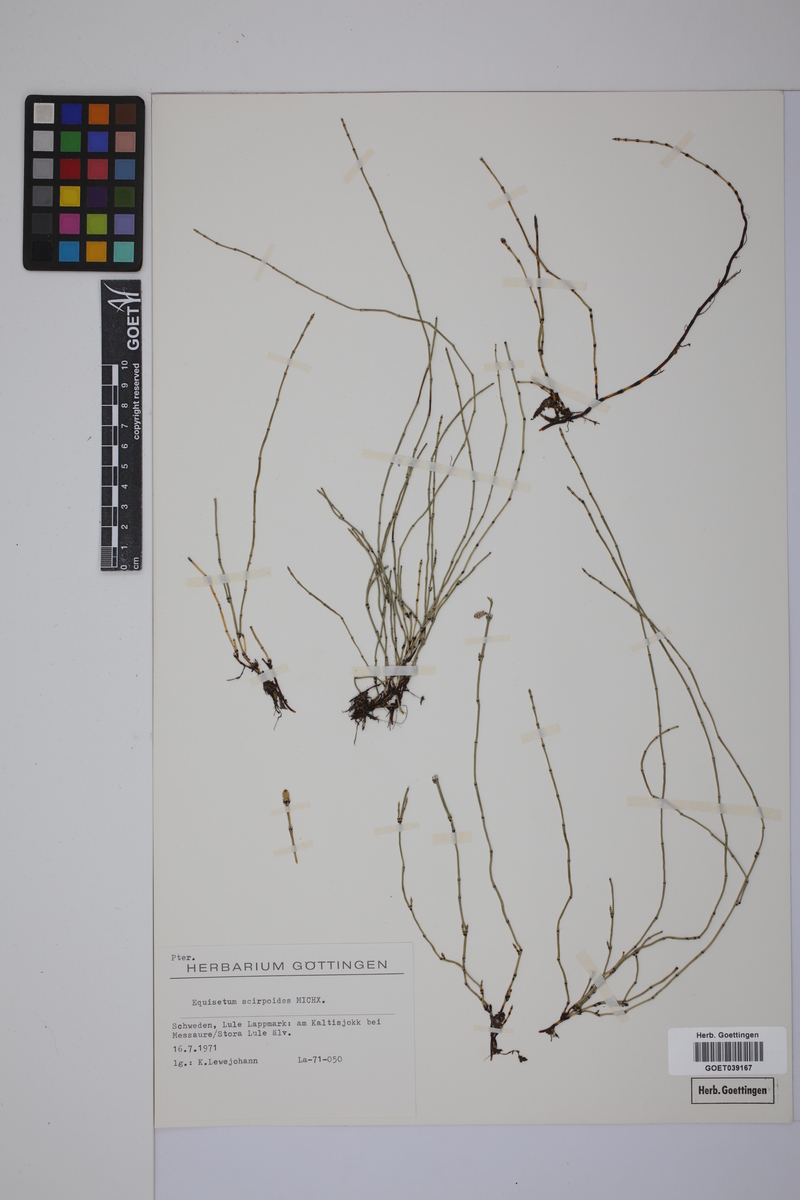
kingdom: Plantae
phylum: Tracheophyta
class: Polypodiopsida
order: Equisetales
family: Equisetaceae
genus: Equisetum
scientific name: Equisetum scirpoides
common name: Delicate horsetail
